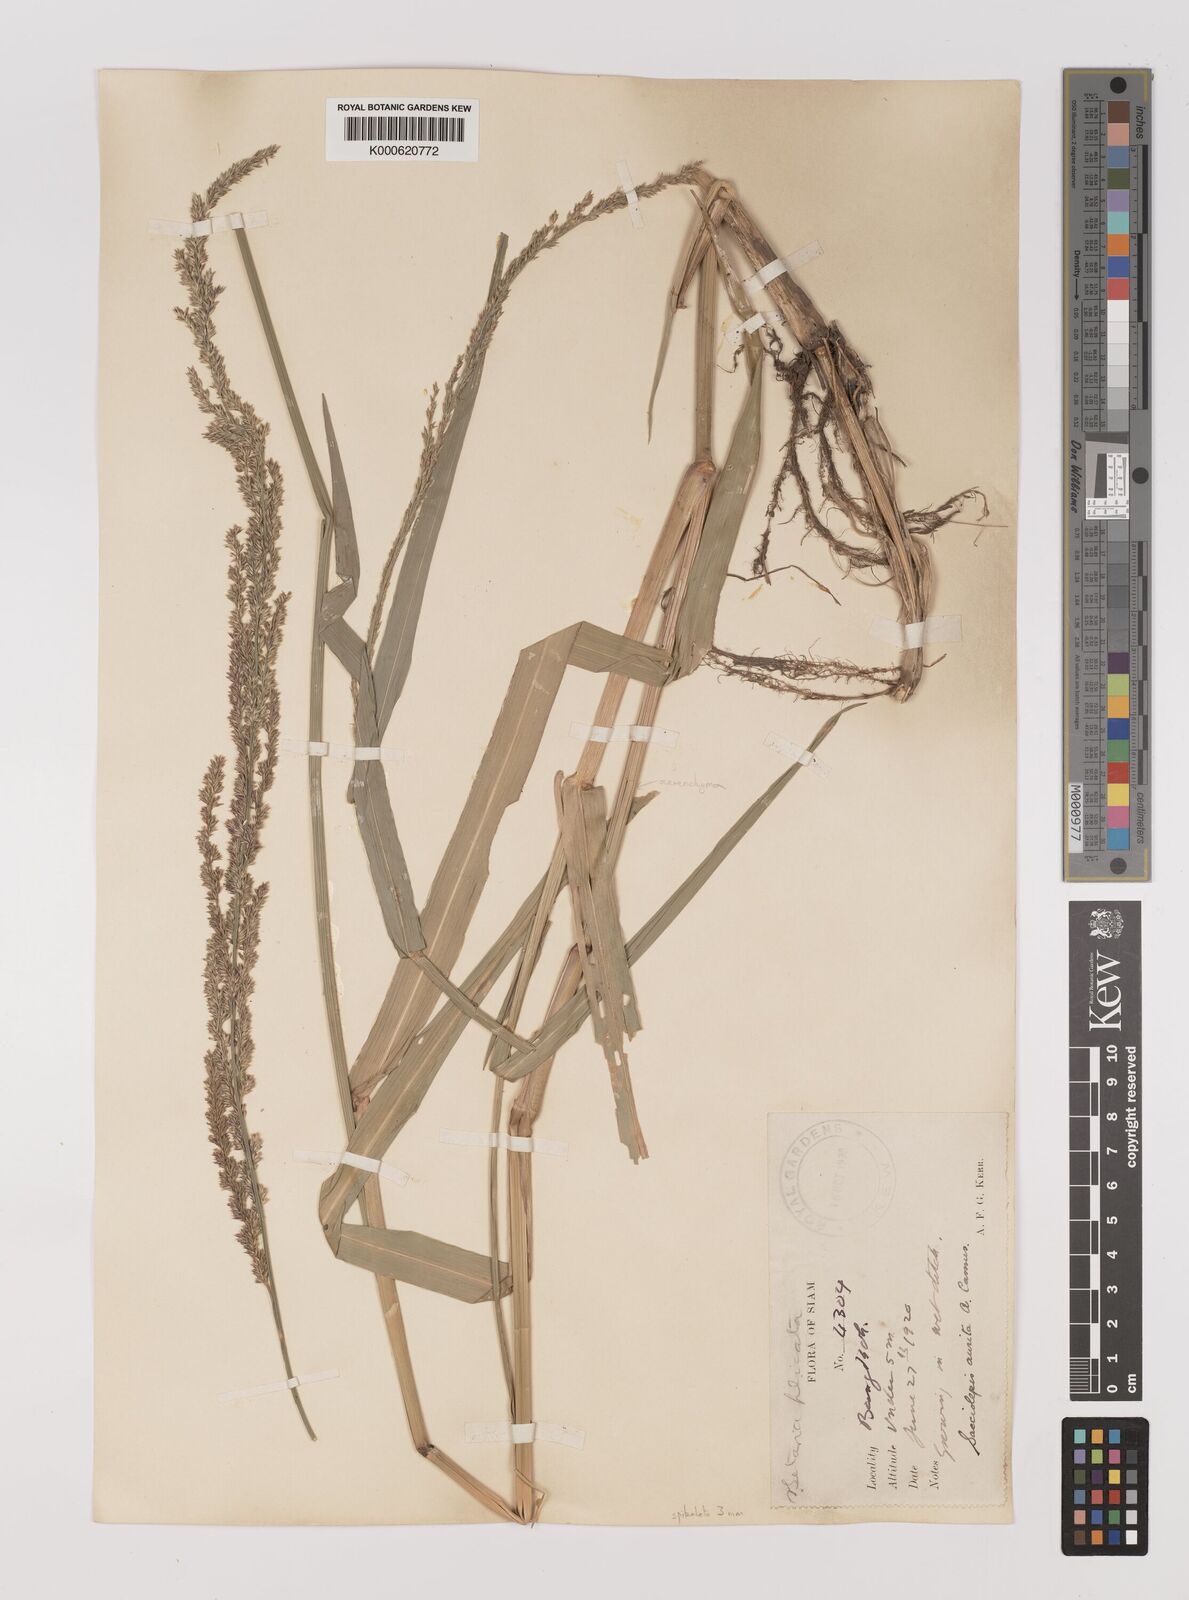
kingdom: Plantae
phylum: Tracheophyta
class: Liliopsida
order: Poales
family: Poaceae
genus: Hymenachne
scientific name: Hymenachne aurita
